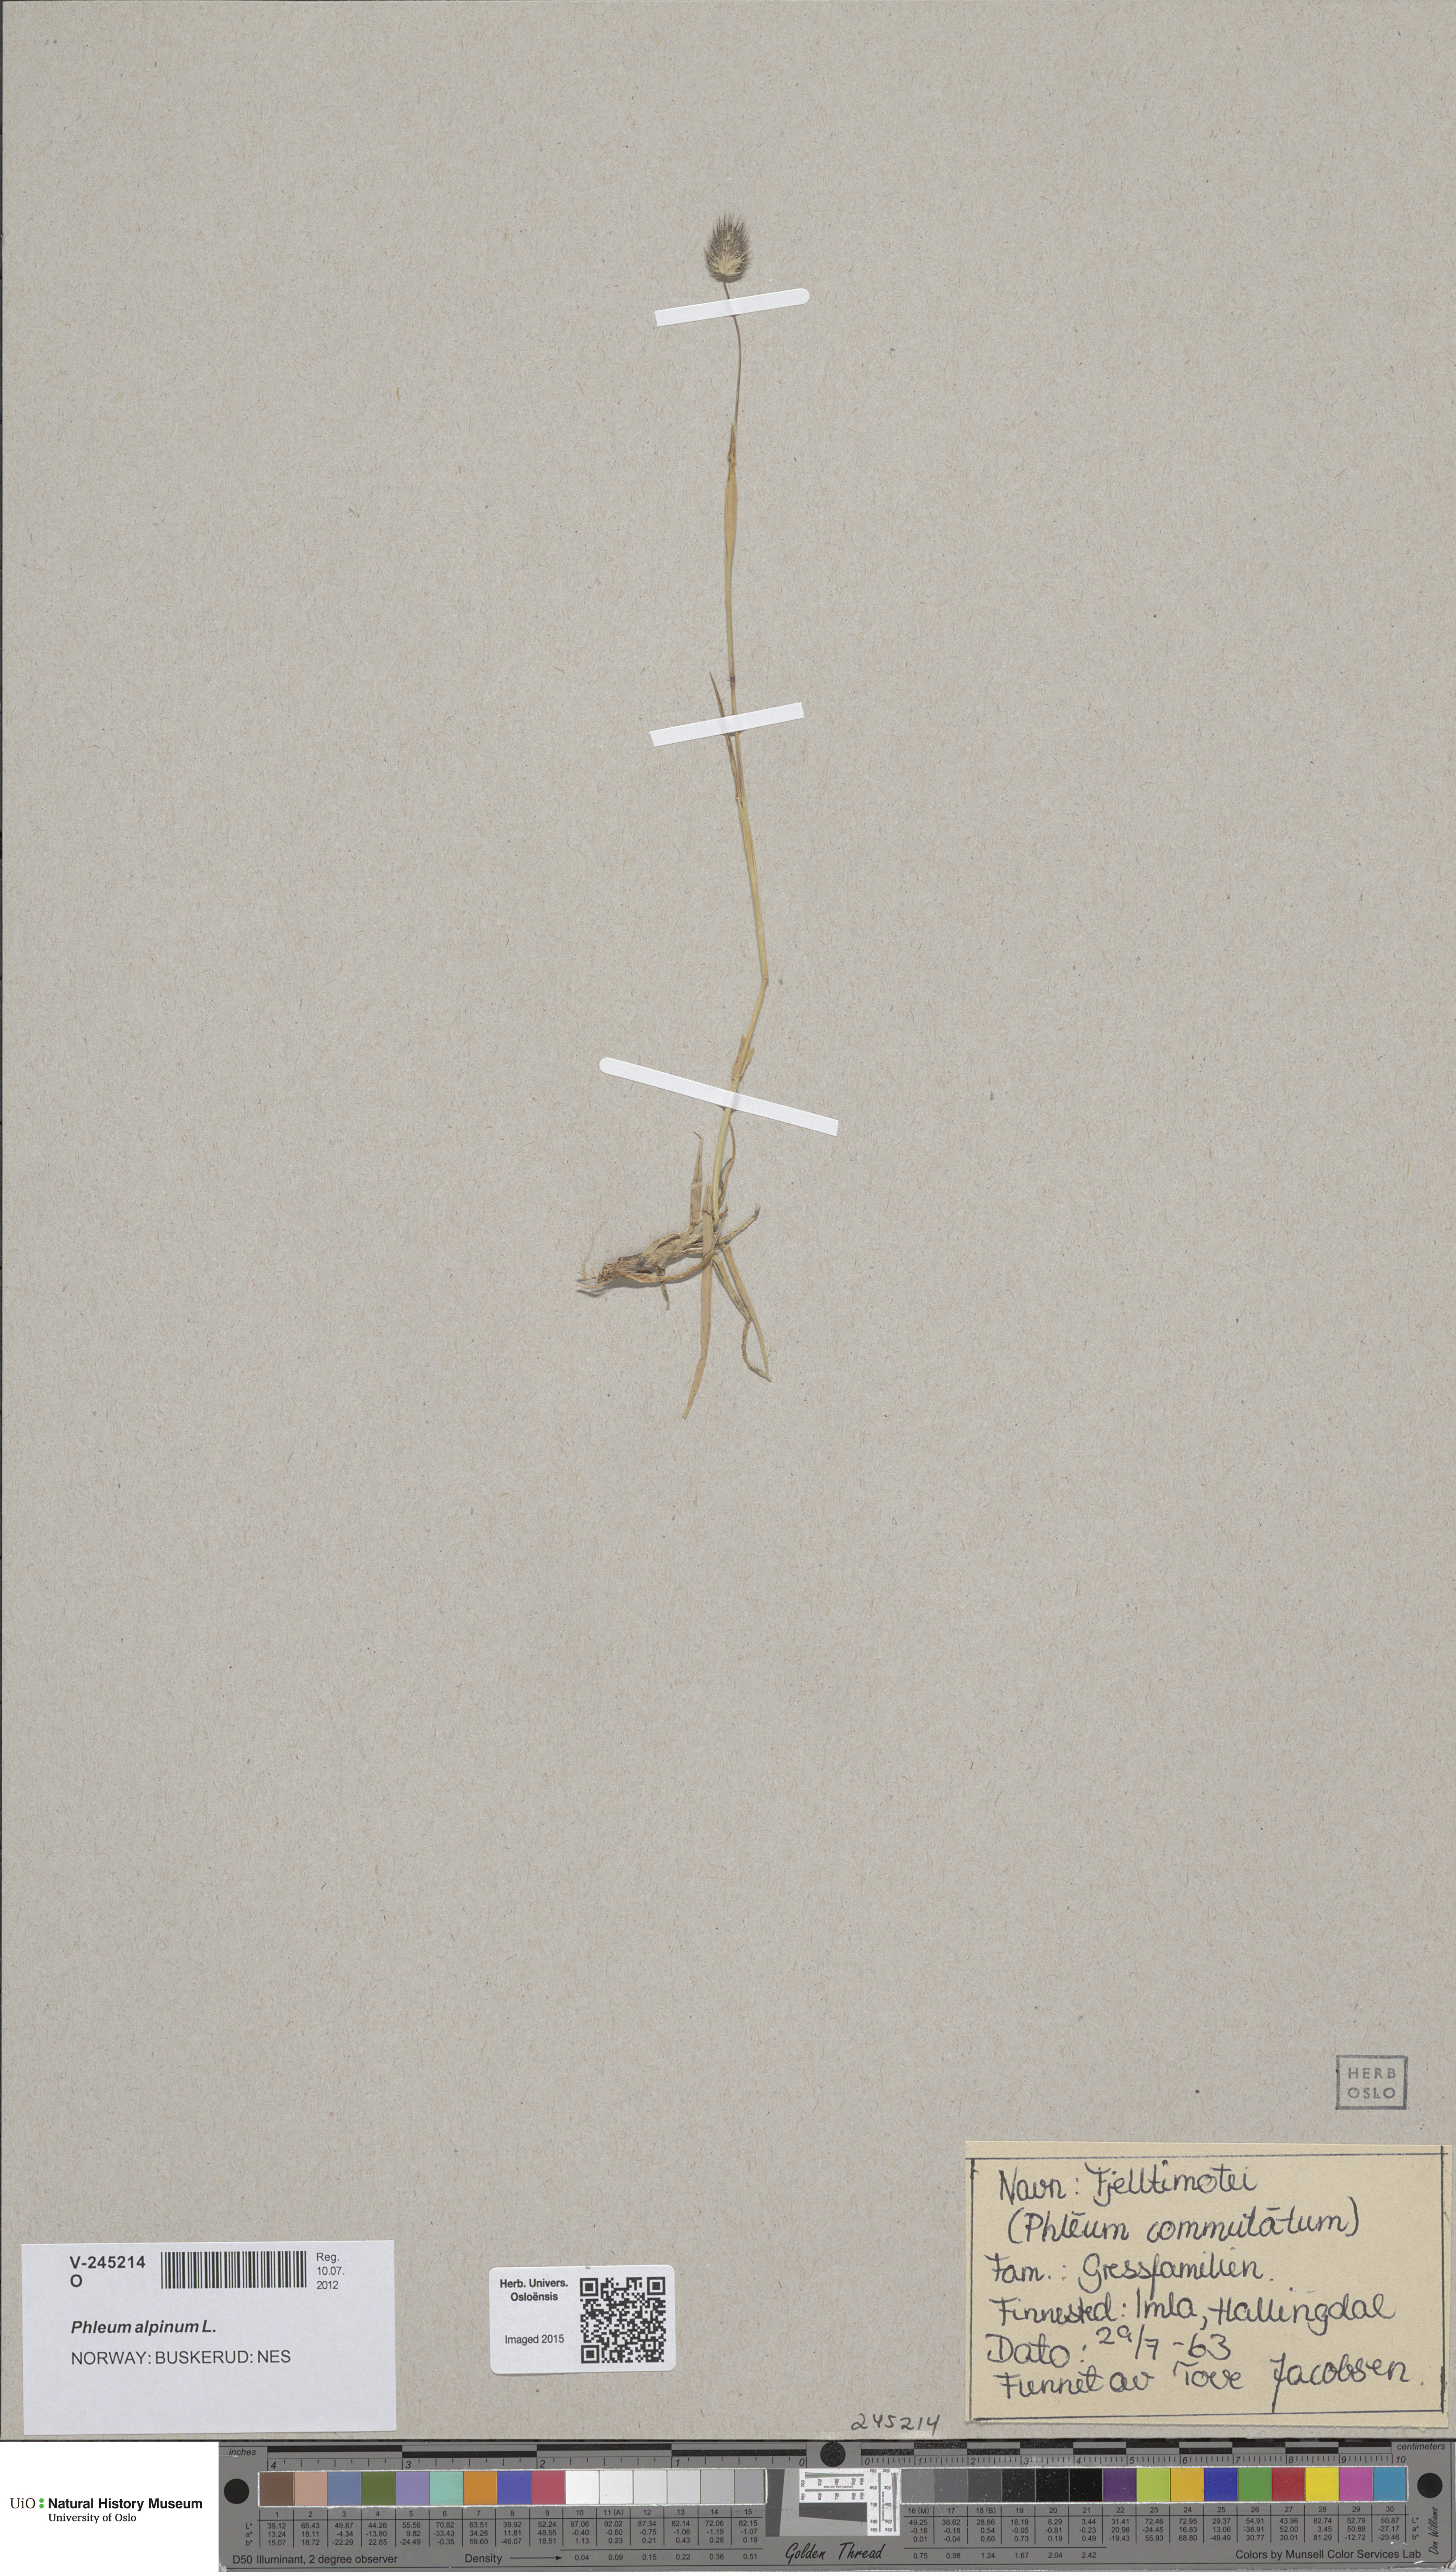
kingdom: Plantae
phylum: Tracheophyta
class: Liliopsida
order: Poales
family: Poaceae
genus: Phleum
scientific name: Phleum alpinum
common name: Alpine cat's-tail
